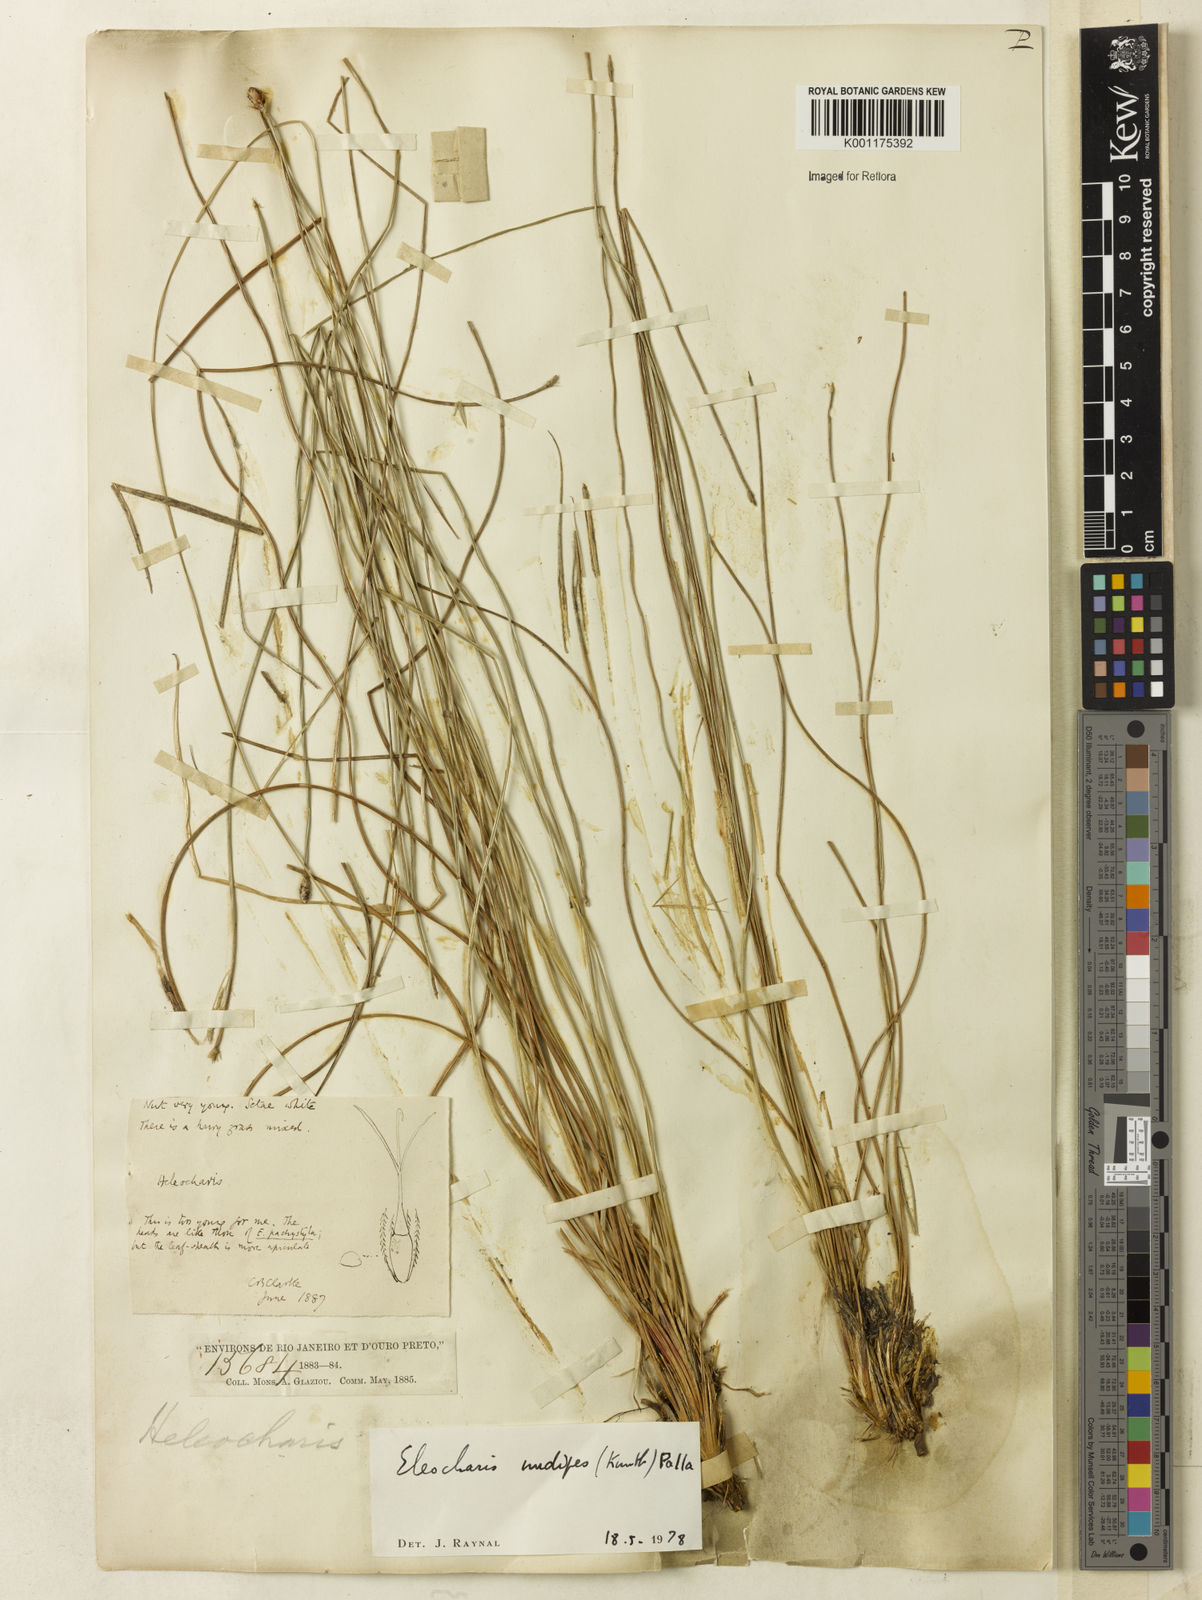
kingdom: Plantae
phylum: Tracheophyta
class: Liliopsida
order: Poales
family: Cyperaceae
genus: Eleocharis
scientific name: Eleocharis nudipes
